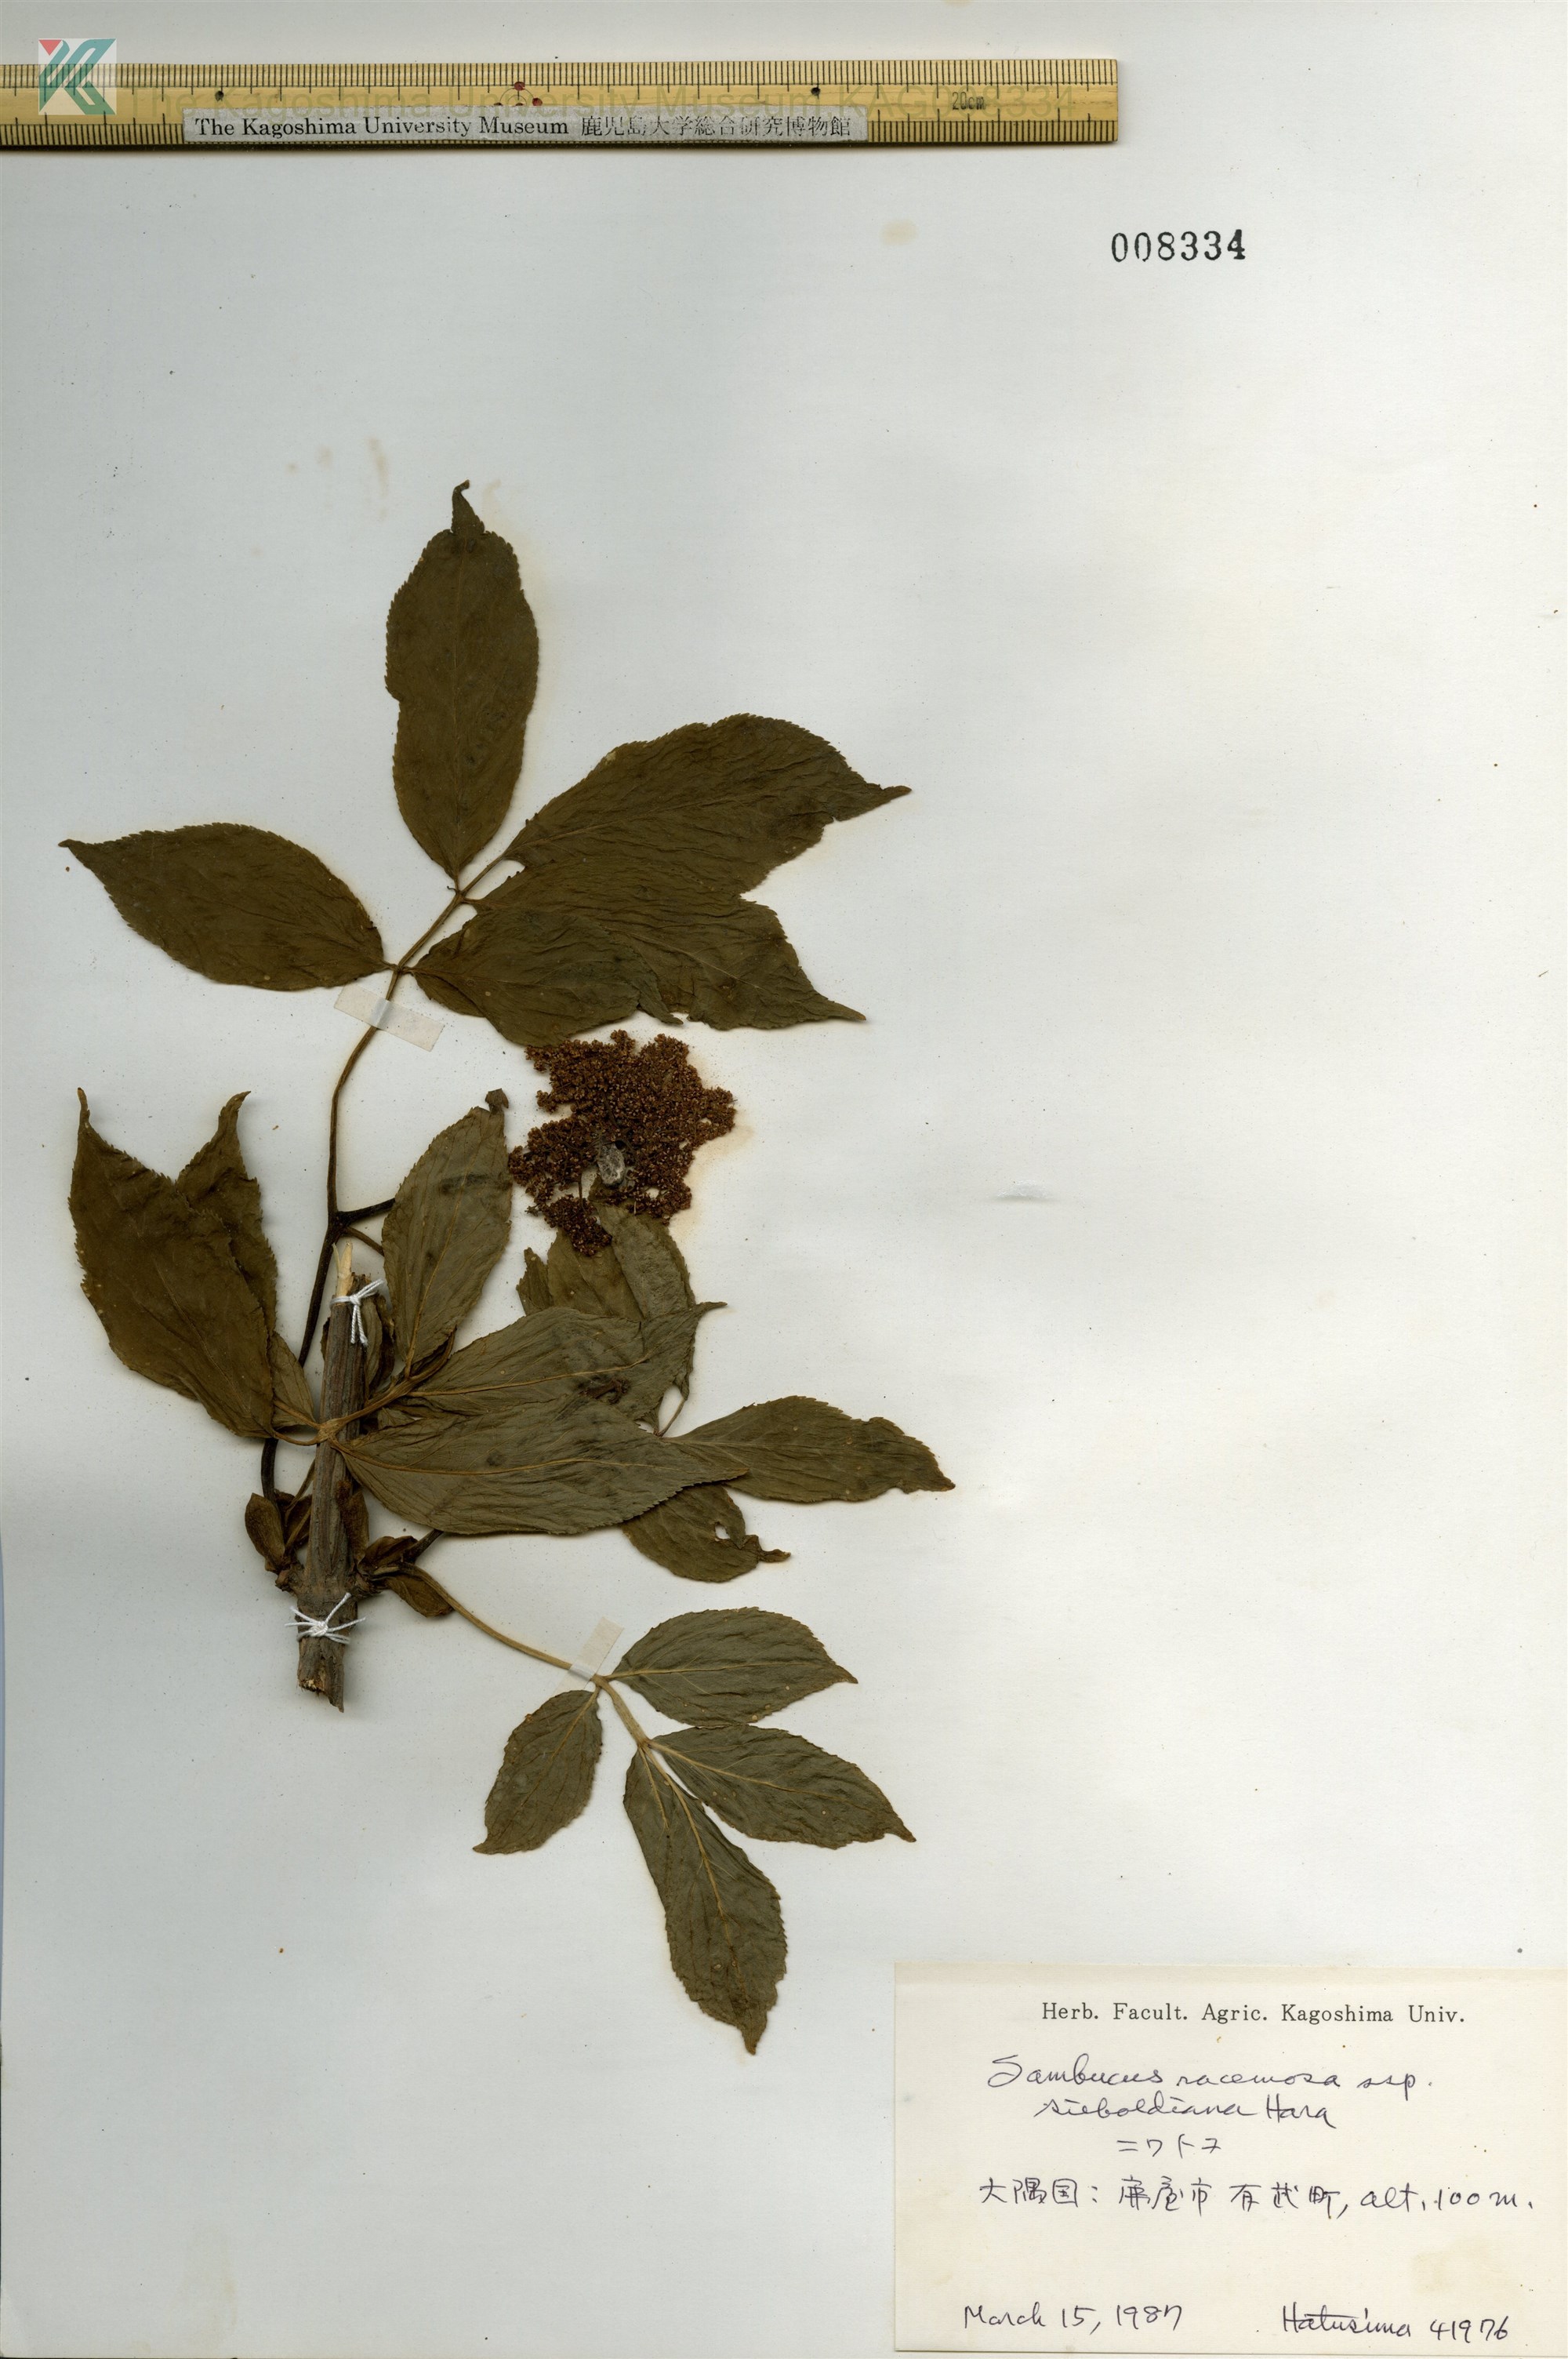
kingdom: Plantae
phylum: Tracheophyta
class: Magnoliopsida
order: Dipsacales
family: Viburnaceae
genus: Sambucus
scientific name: Sambucus sieboldiana
